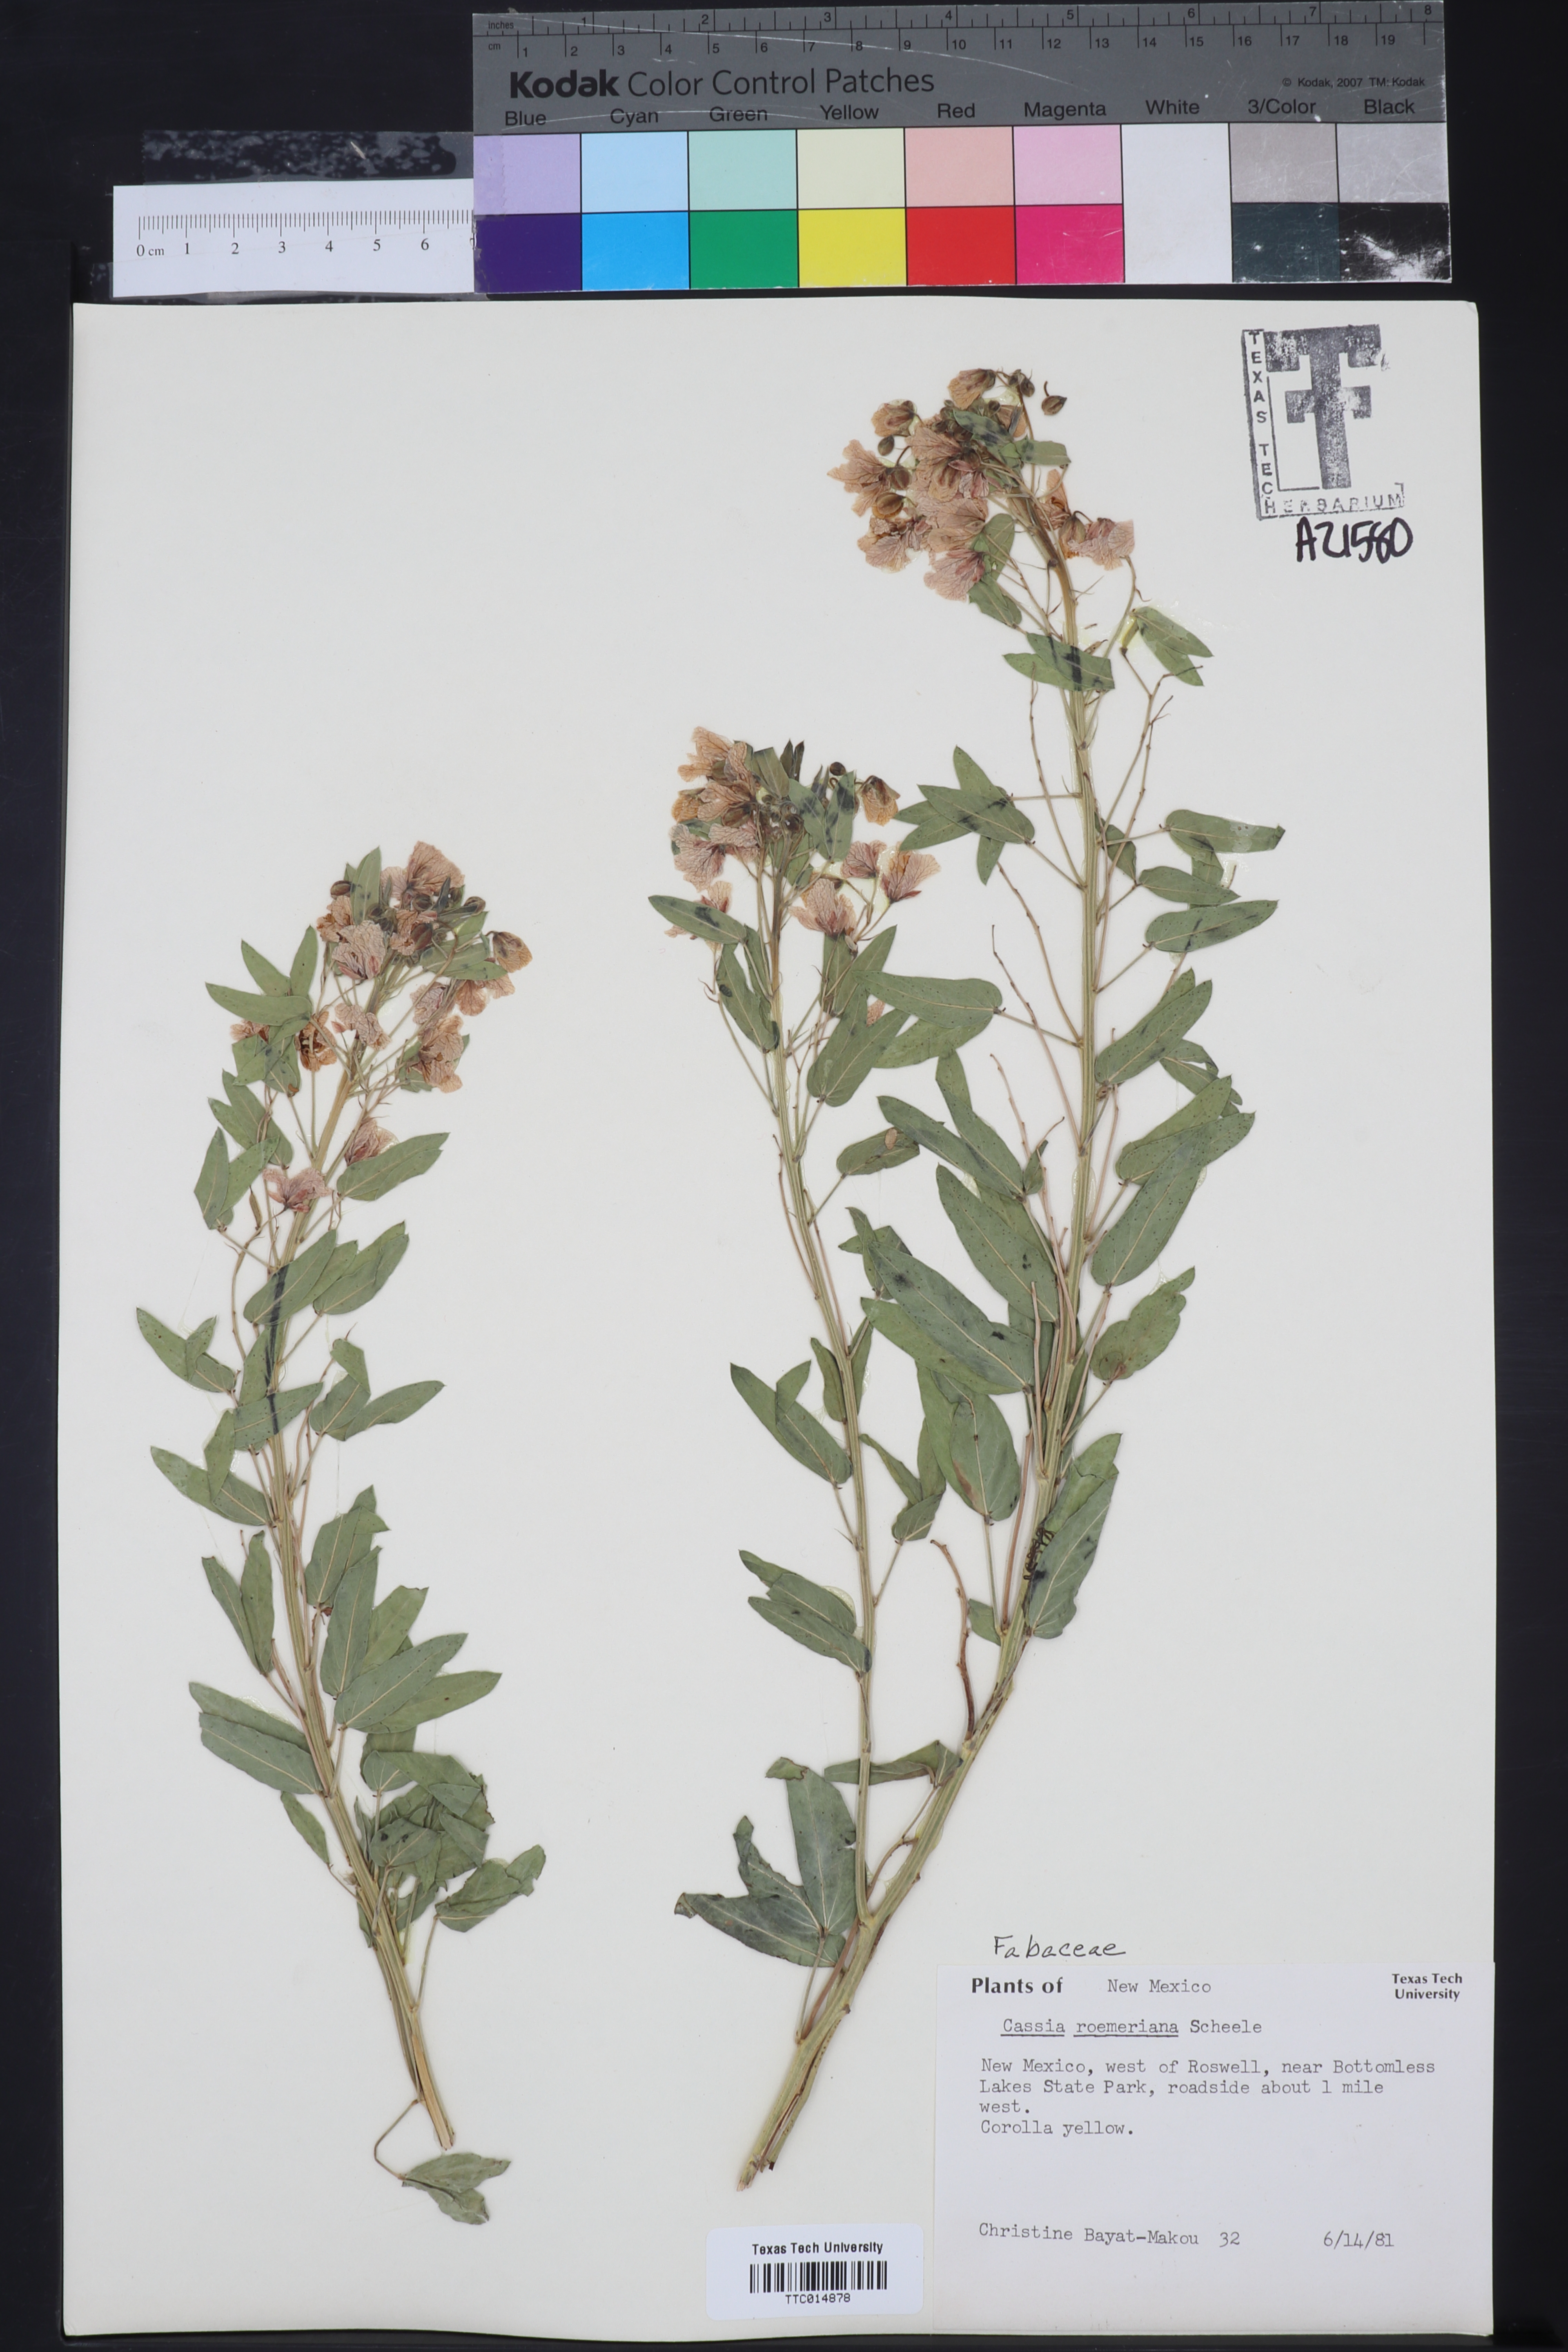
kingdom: Plantae
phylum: Tracheophyta
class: Magnoliopsida
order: Fabales
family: Fabaceae
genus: Senna
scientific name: Senna roemeriana
